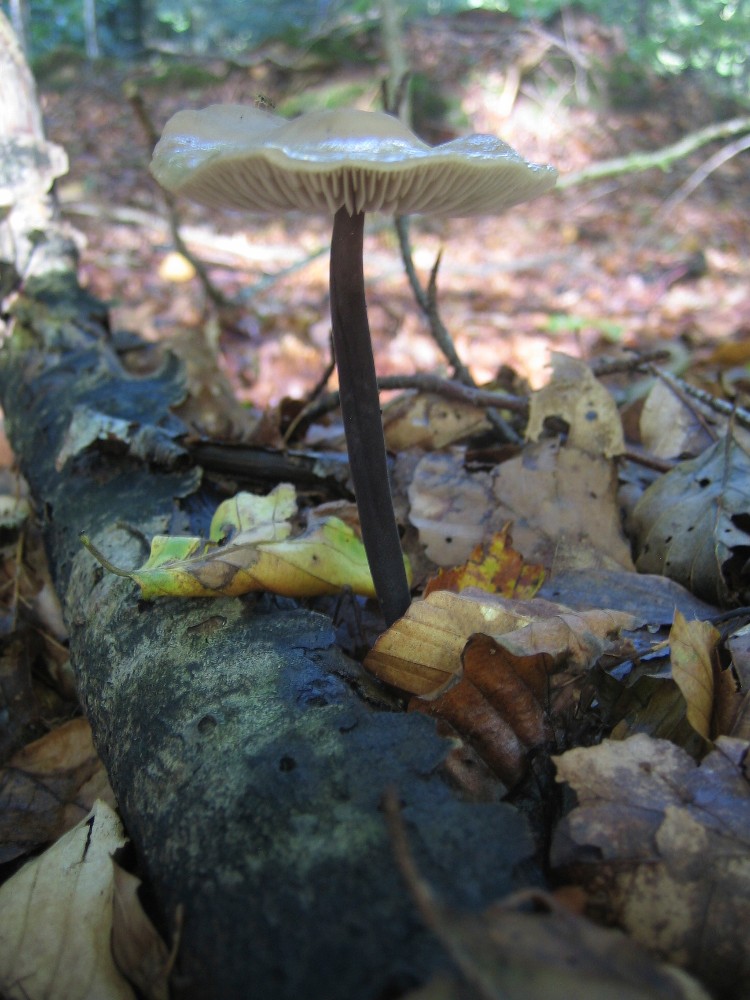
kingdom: Fungi
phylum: Basidiomycota
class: Agaricomycetes
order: Agaricales
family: Omphalotaceae
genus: Mycetinis
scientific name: Mycetinis alliaceus
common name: stor løghat
